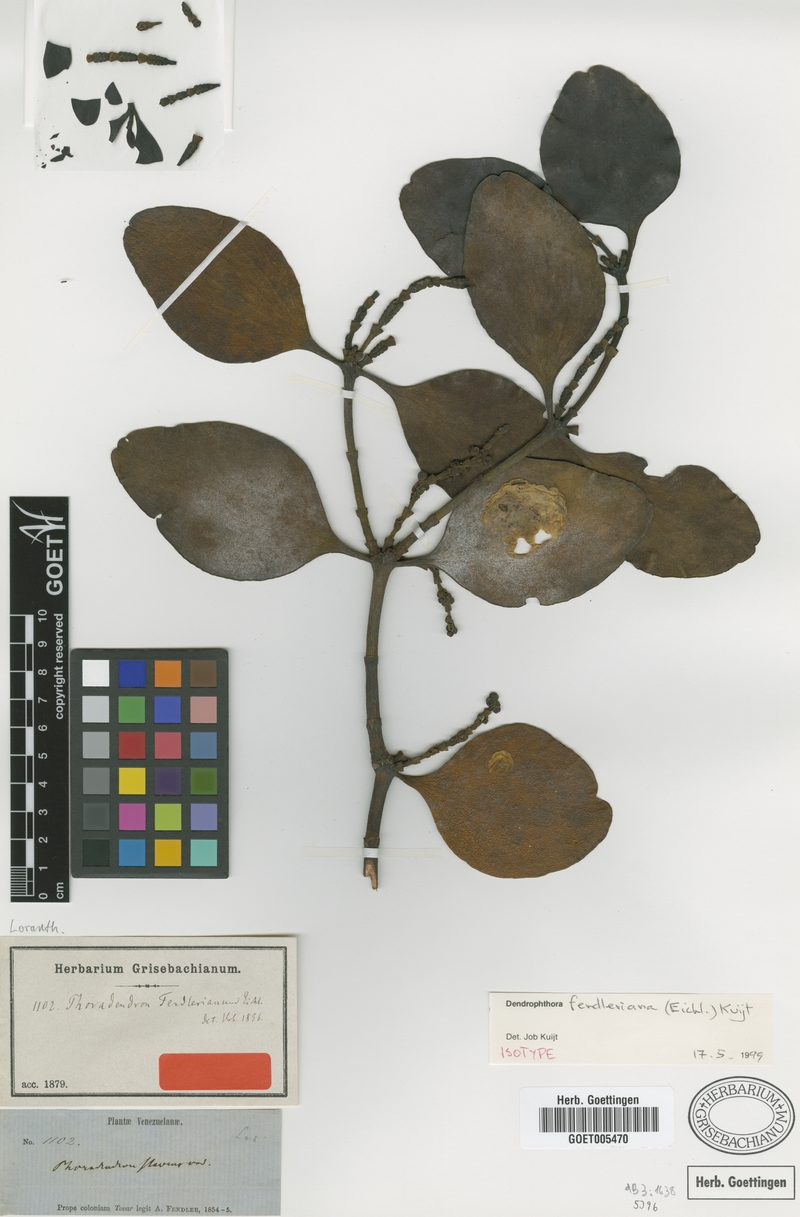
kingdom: Plantae
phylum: Tracheophyta
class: Magnoliopsida
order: Santalales
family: Viscaceae
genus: Dendrophthora
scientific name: Dendrophthora fendleriana
